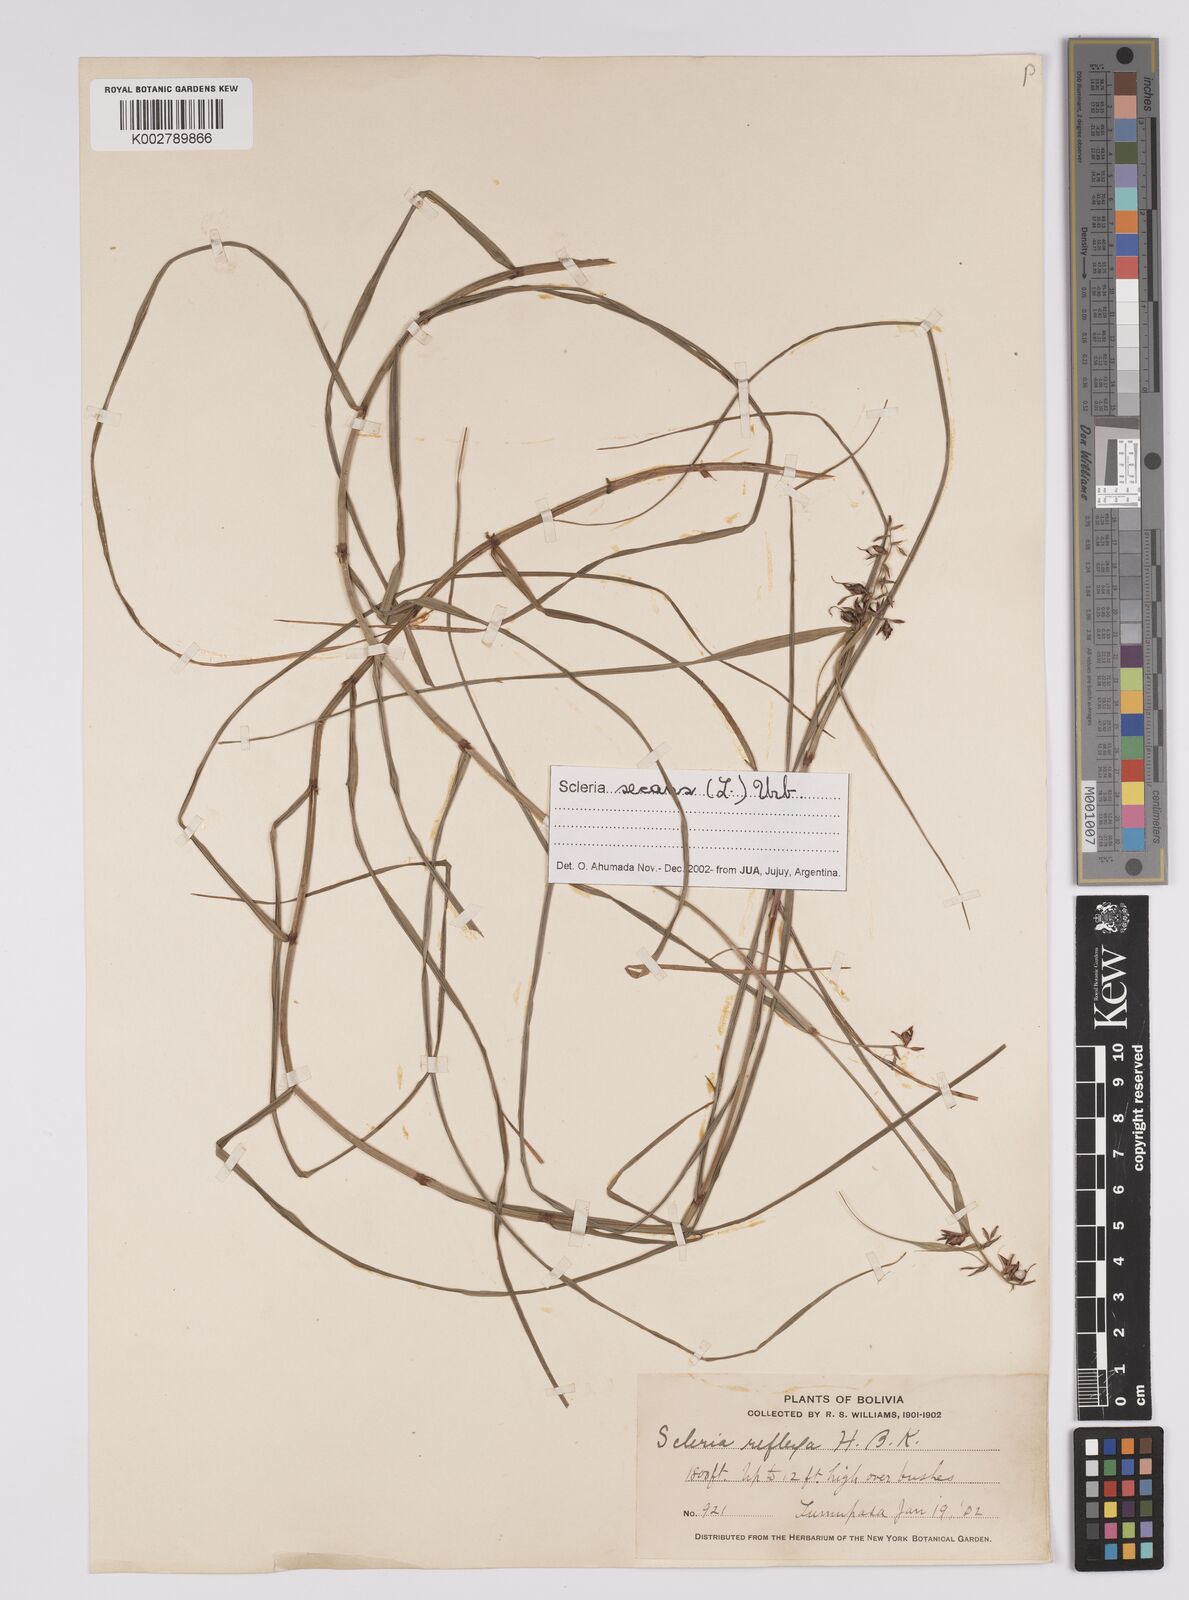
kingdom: Plantae
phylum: Tracheophyta
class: Liliopsida
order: Poales
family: Cyperaceae
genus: Scleria
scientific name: Scleria
